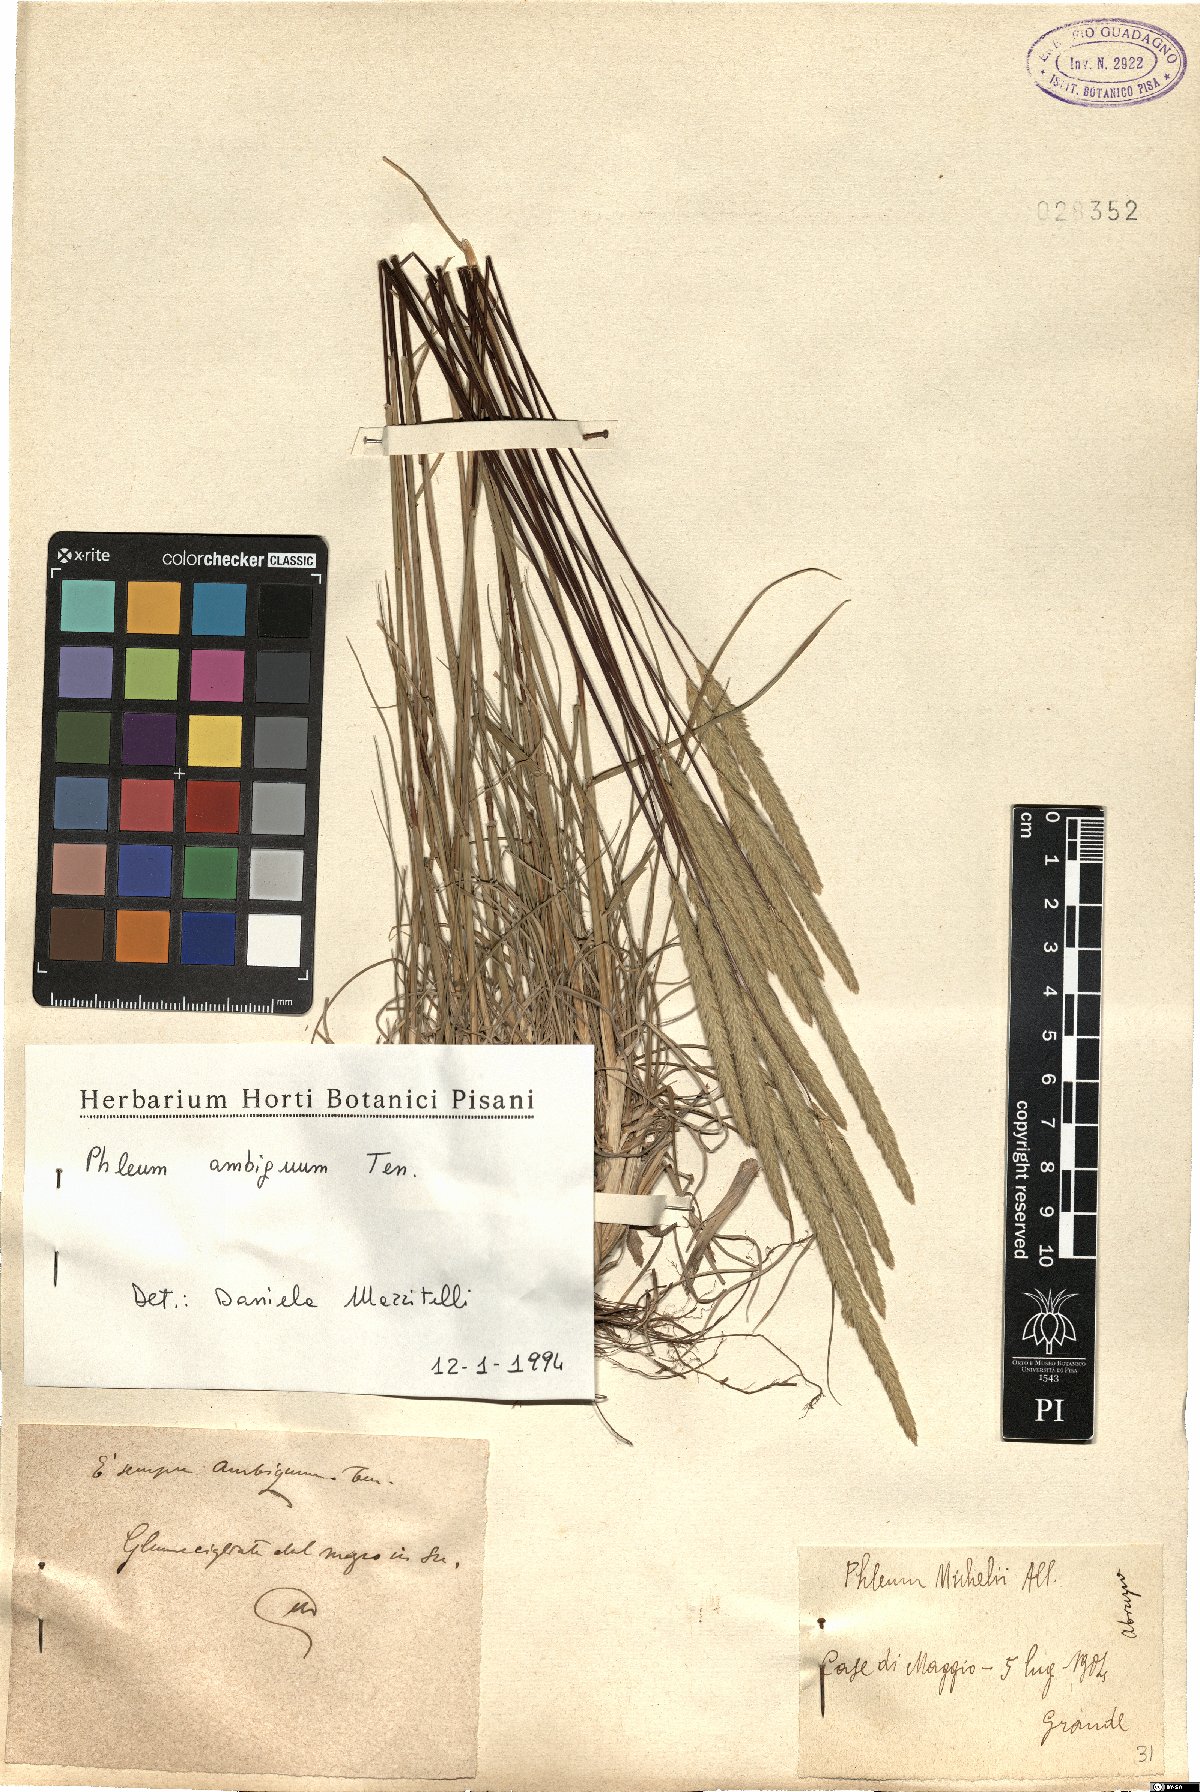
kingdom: Plantae
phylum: Tracheophyta
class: Liliopsida
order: Poales
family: Poaceae
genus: Phleum
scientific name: Phleum hirsutum
